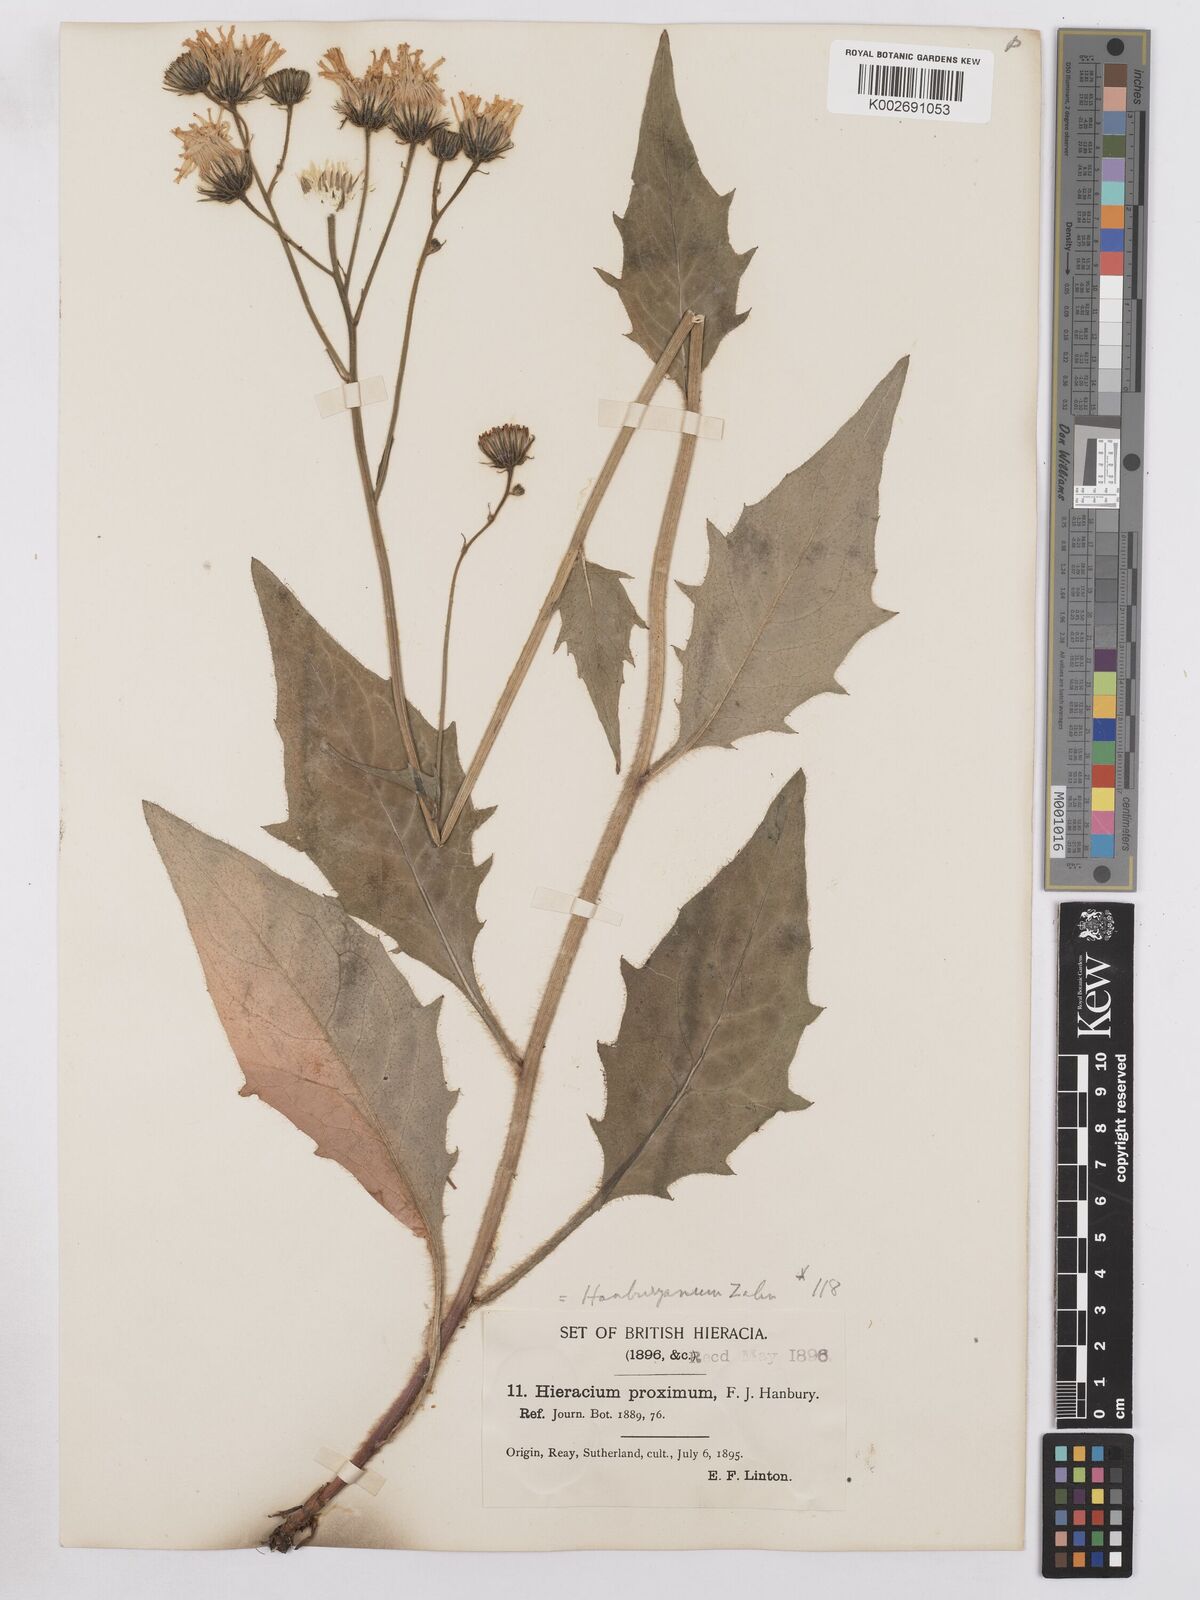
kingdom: Plantae
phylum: Tracheophyta
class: Magnoliopsida
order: Asterales
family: Asteraceae
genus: Hieracium
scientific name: Hieracium proximum
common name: Caithness hawkweed
